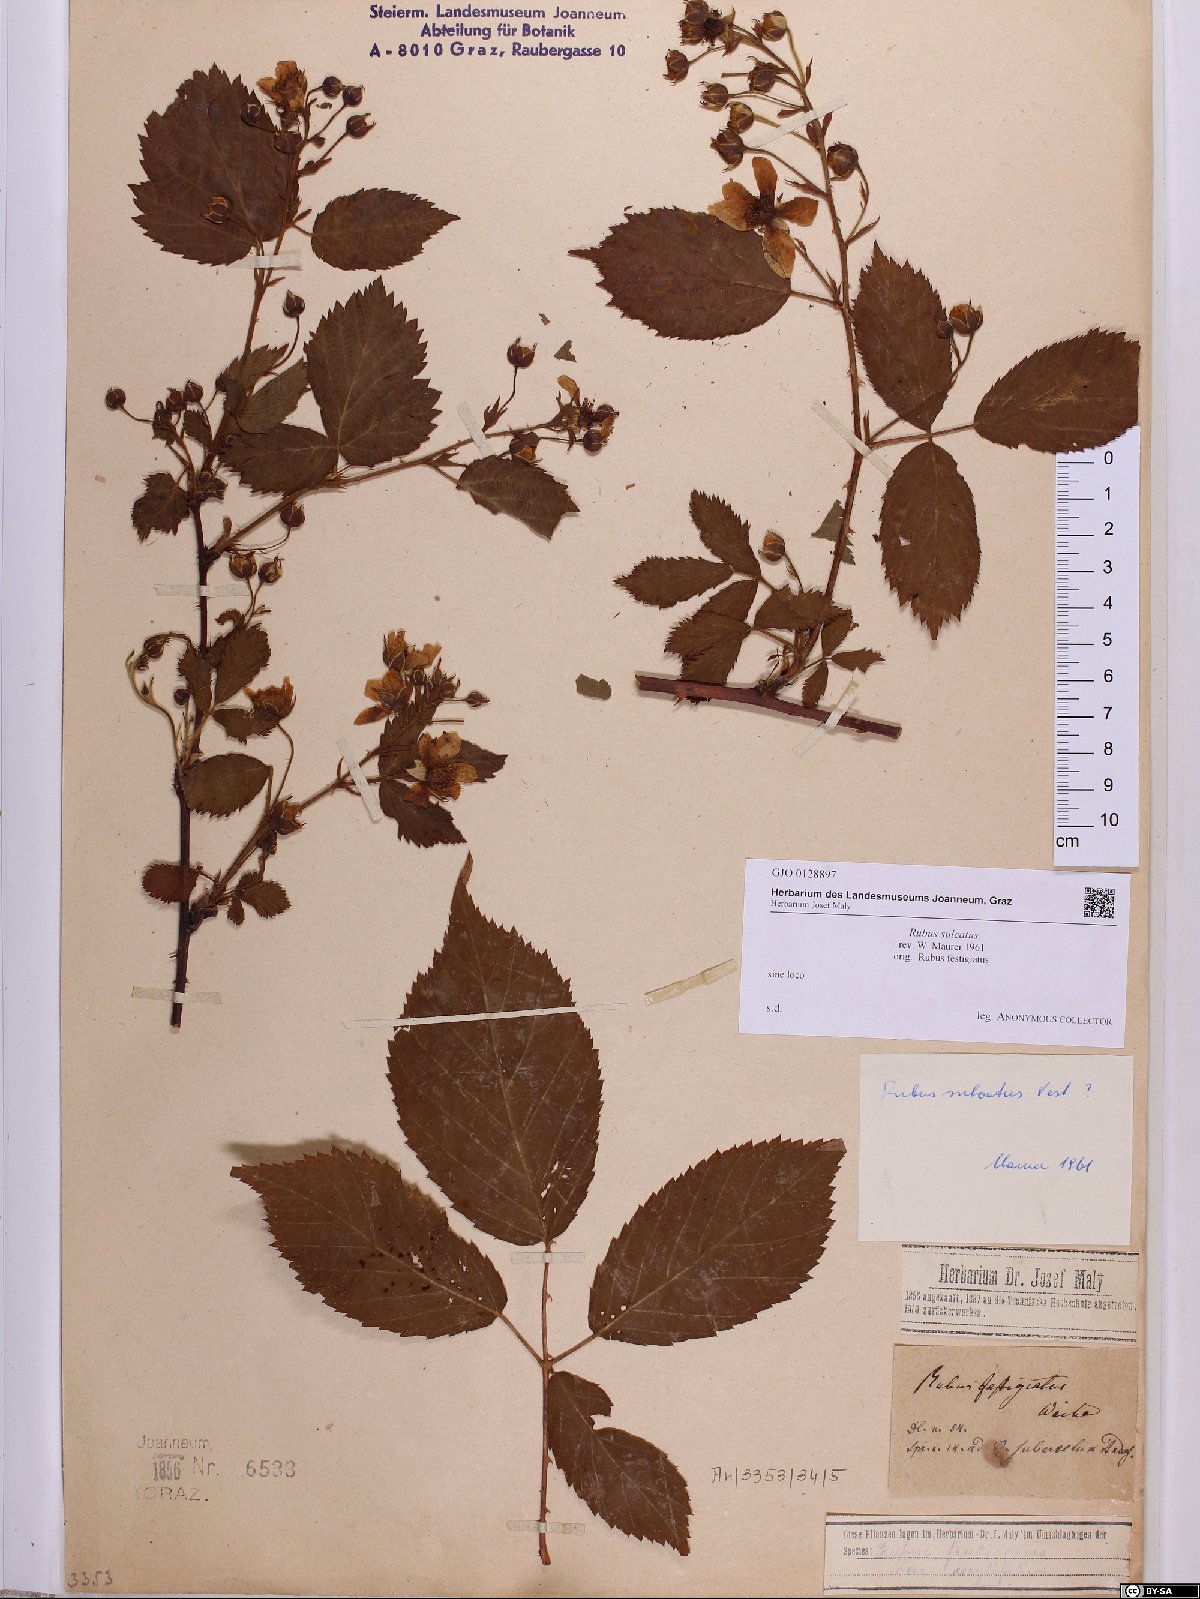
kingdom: Plantae
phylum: Tracheophyta
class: Magnoliopsida
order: Rosales
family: Rosaceae
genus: Rubus
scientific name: Rubus sulcatus
